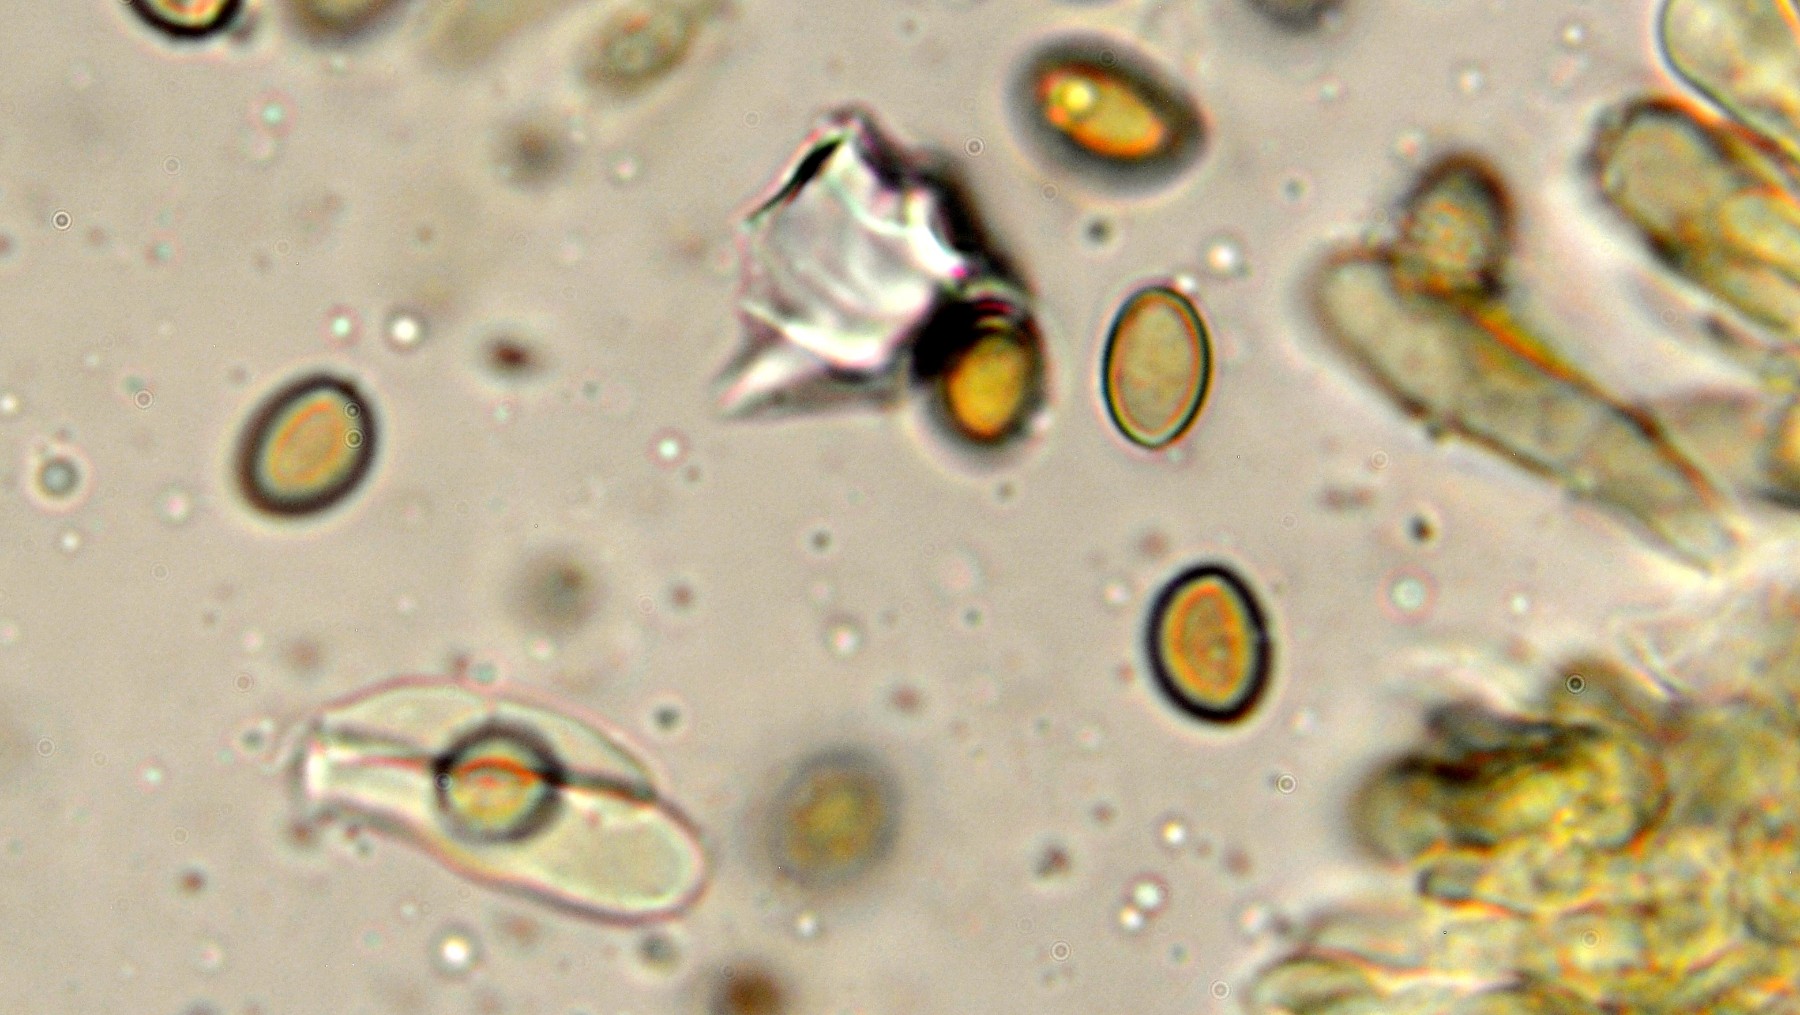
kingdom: Fungi
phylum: Basidiomycota
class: Agaricomycetes
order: Agaricales
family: Crepidotaceae
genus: Crepidotus
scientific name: Crepidotus calolepis
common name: småskællet muslingesvamp
